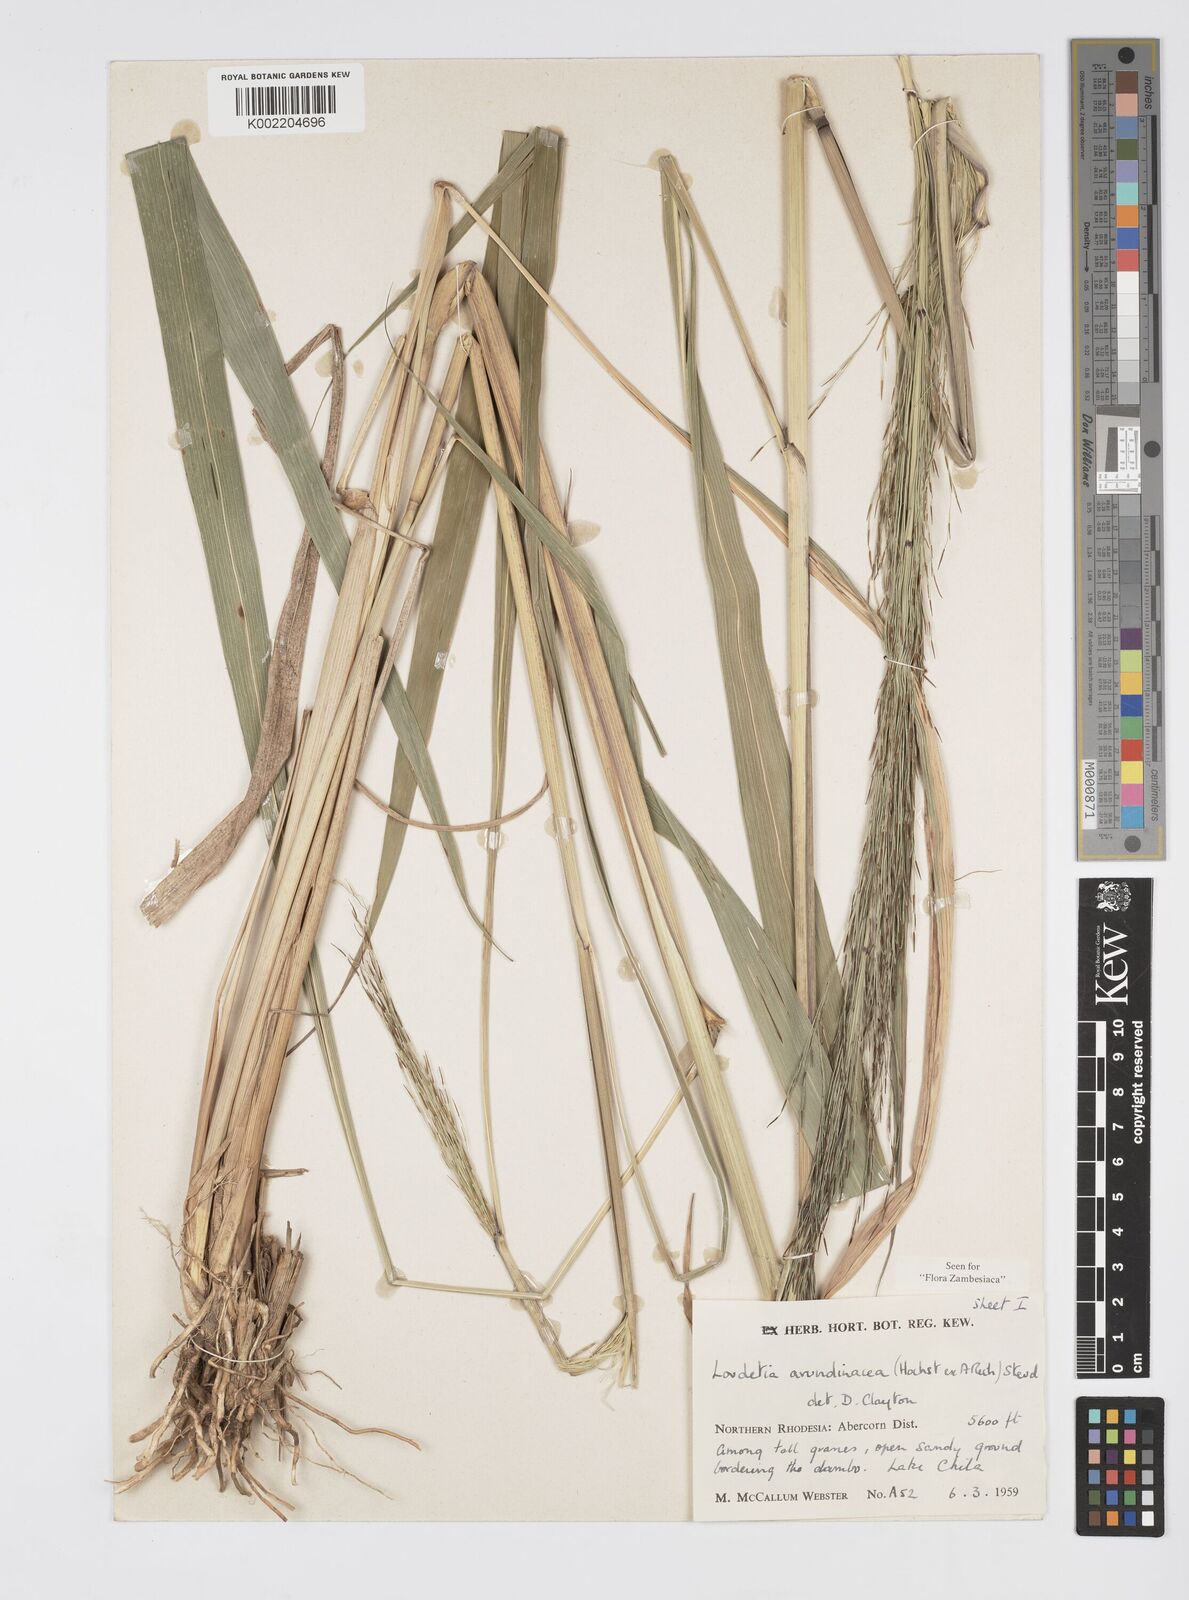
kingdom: Plantae
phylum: Tracheophyta
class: Liliopsida
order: Poales
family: Poaceae
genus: Loudetia
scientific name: Loudetia arundinacea
